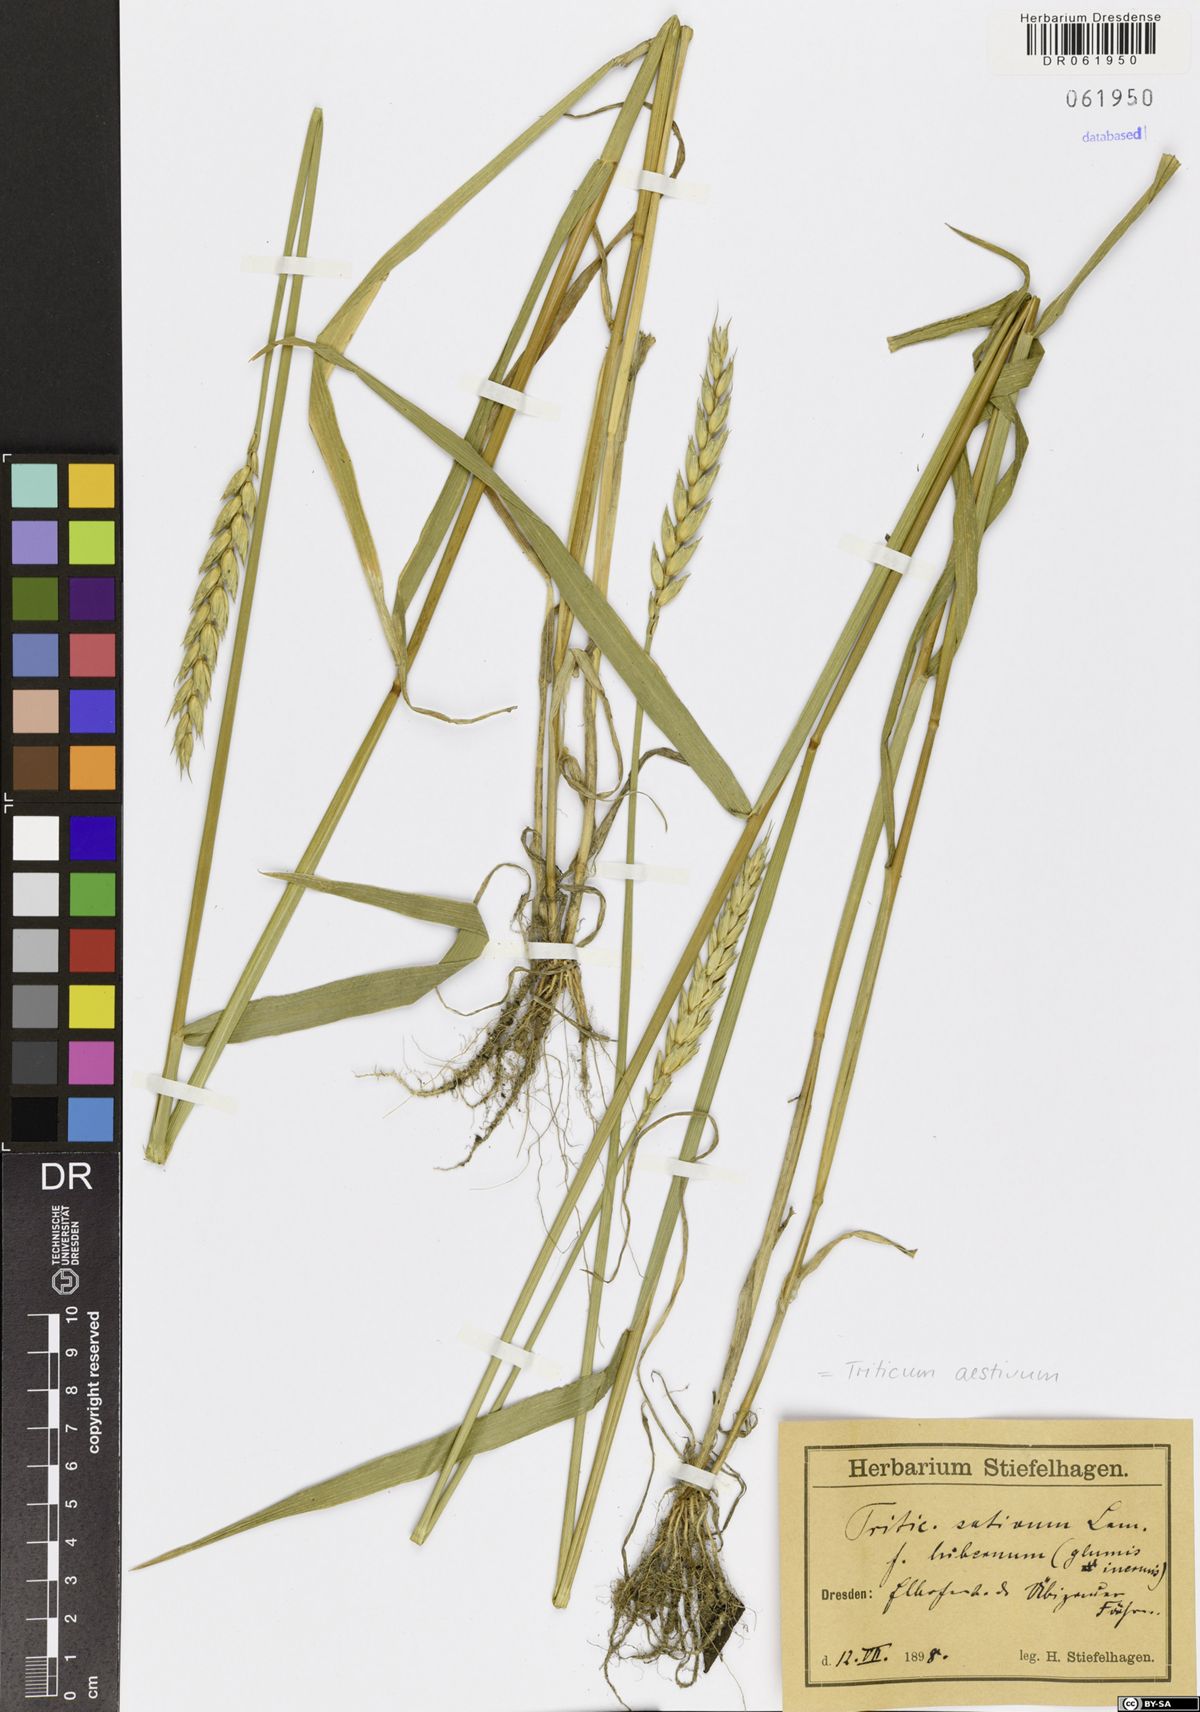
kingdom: Plantae
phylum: Tracheophyta
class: Liliopsida
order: Poales
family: Poaceae
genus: Triticum
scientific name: Triticum aestivum
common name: Common wheat
